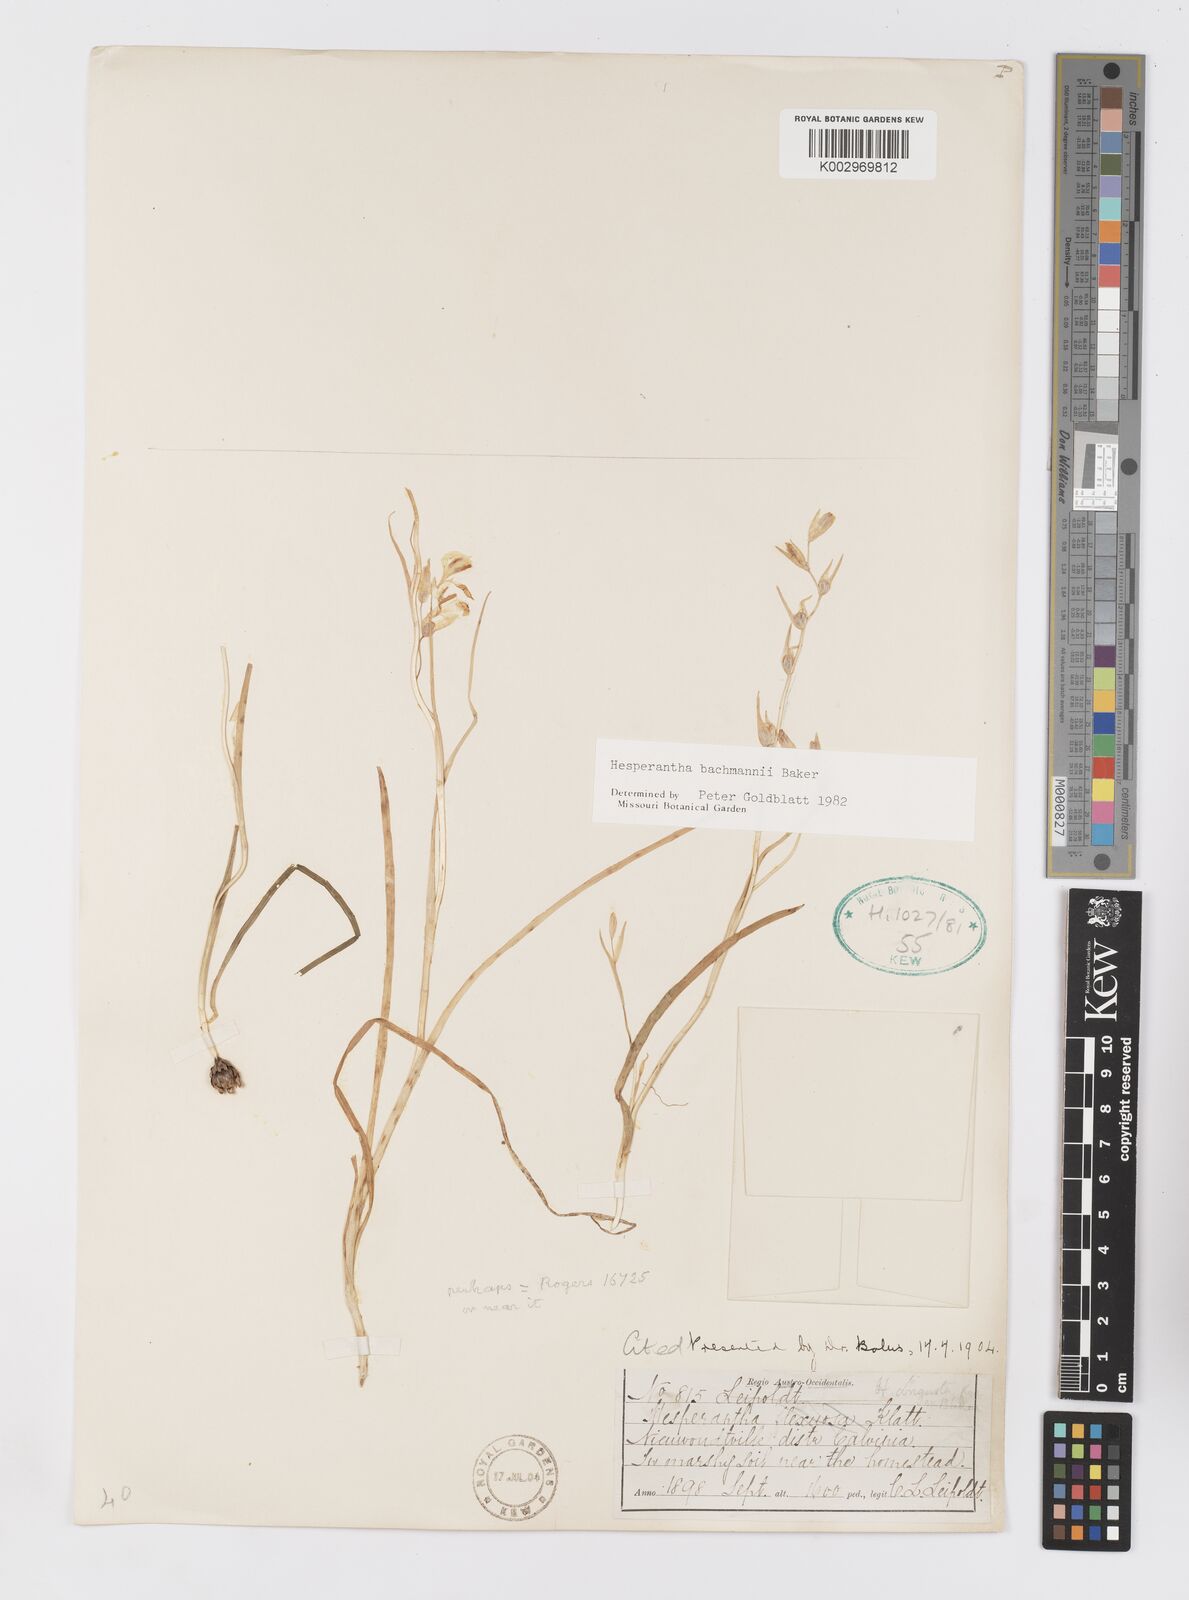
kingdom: Plantae
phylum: Tracheophyta
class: Liliopsida
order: Asparagales
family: Iridaceae
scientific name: Iridaceae
